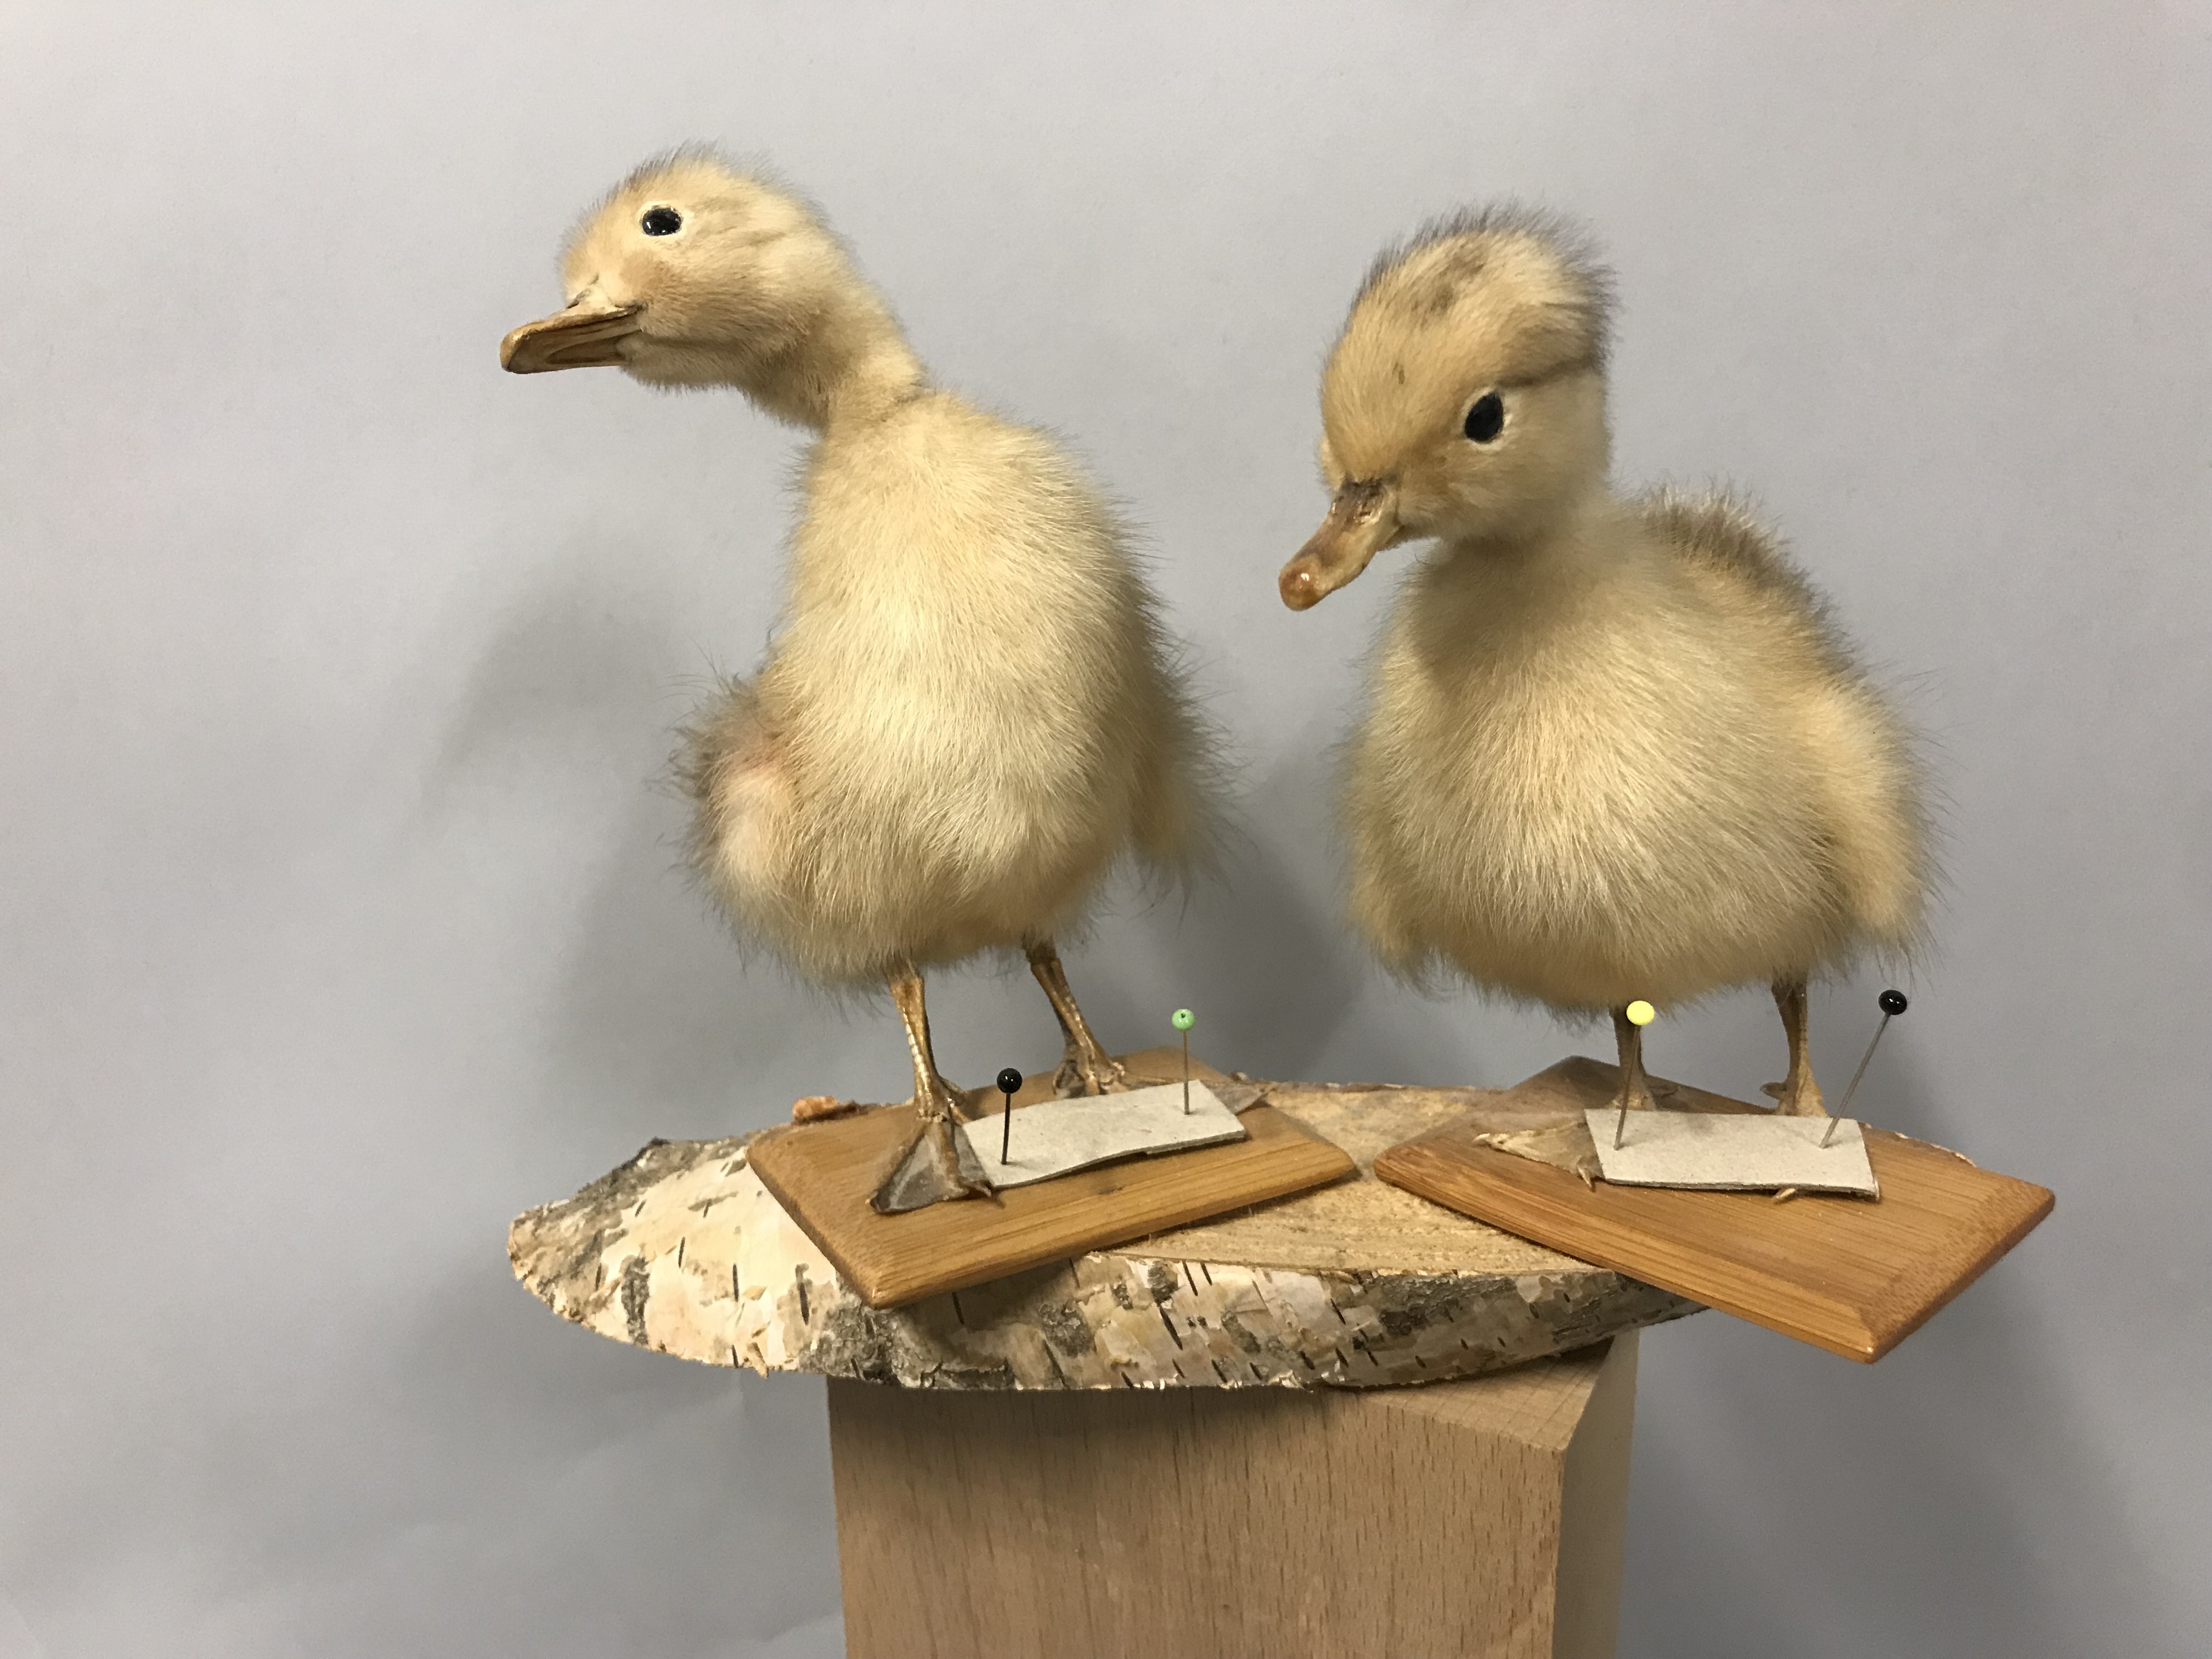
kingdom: Animalia
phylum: Chordata
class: Aves
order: Anseriformes
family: Anatidae
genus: Anas
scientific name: Anas platyrhynchos
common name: Mallard
